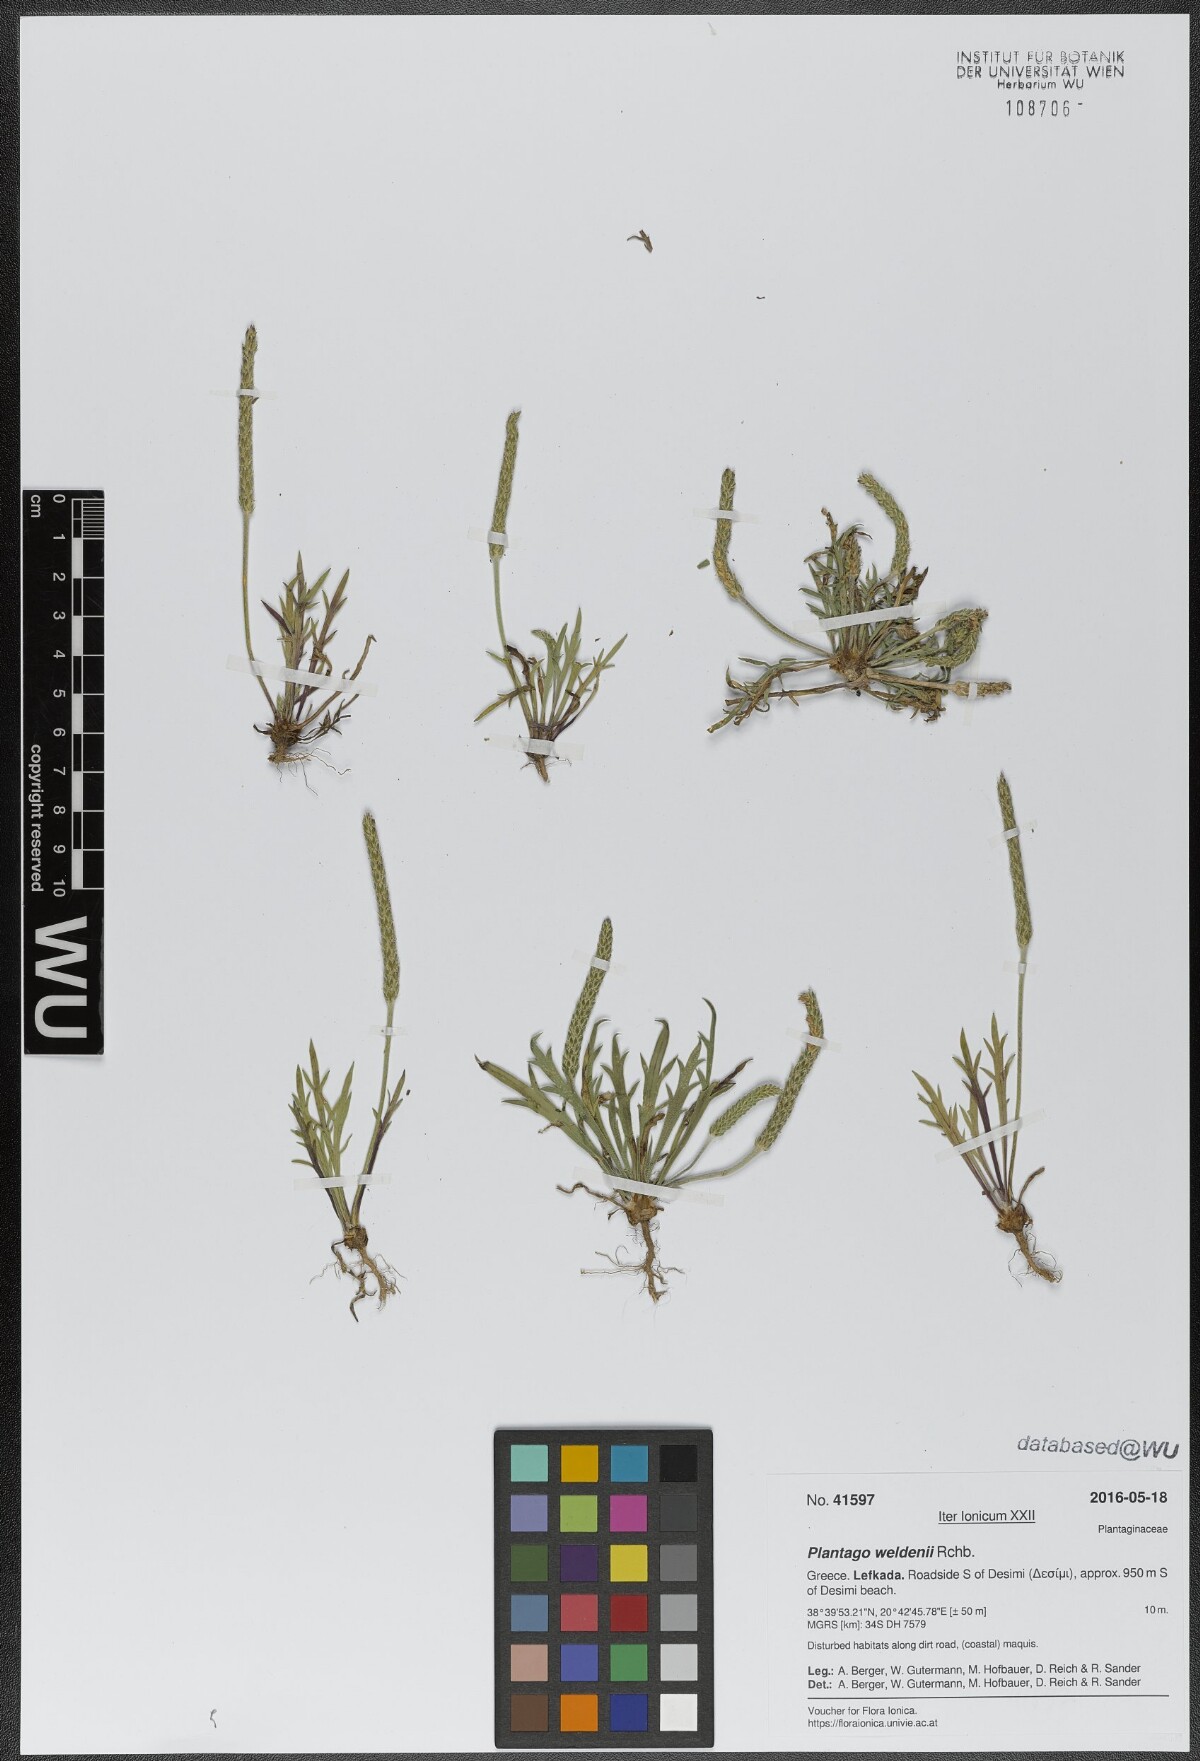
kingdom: Plantae
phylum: Tracheophyta
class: Magnoliopsida
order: Lamiales
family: Plantaginaceae
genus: Plantago
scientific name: Plantago weldenii
